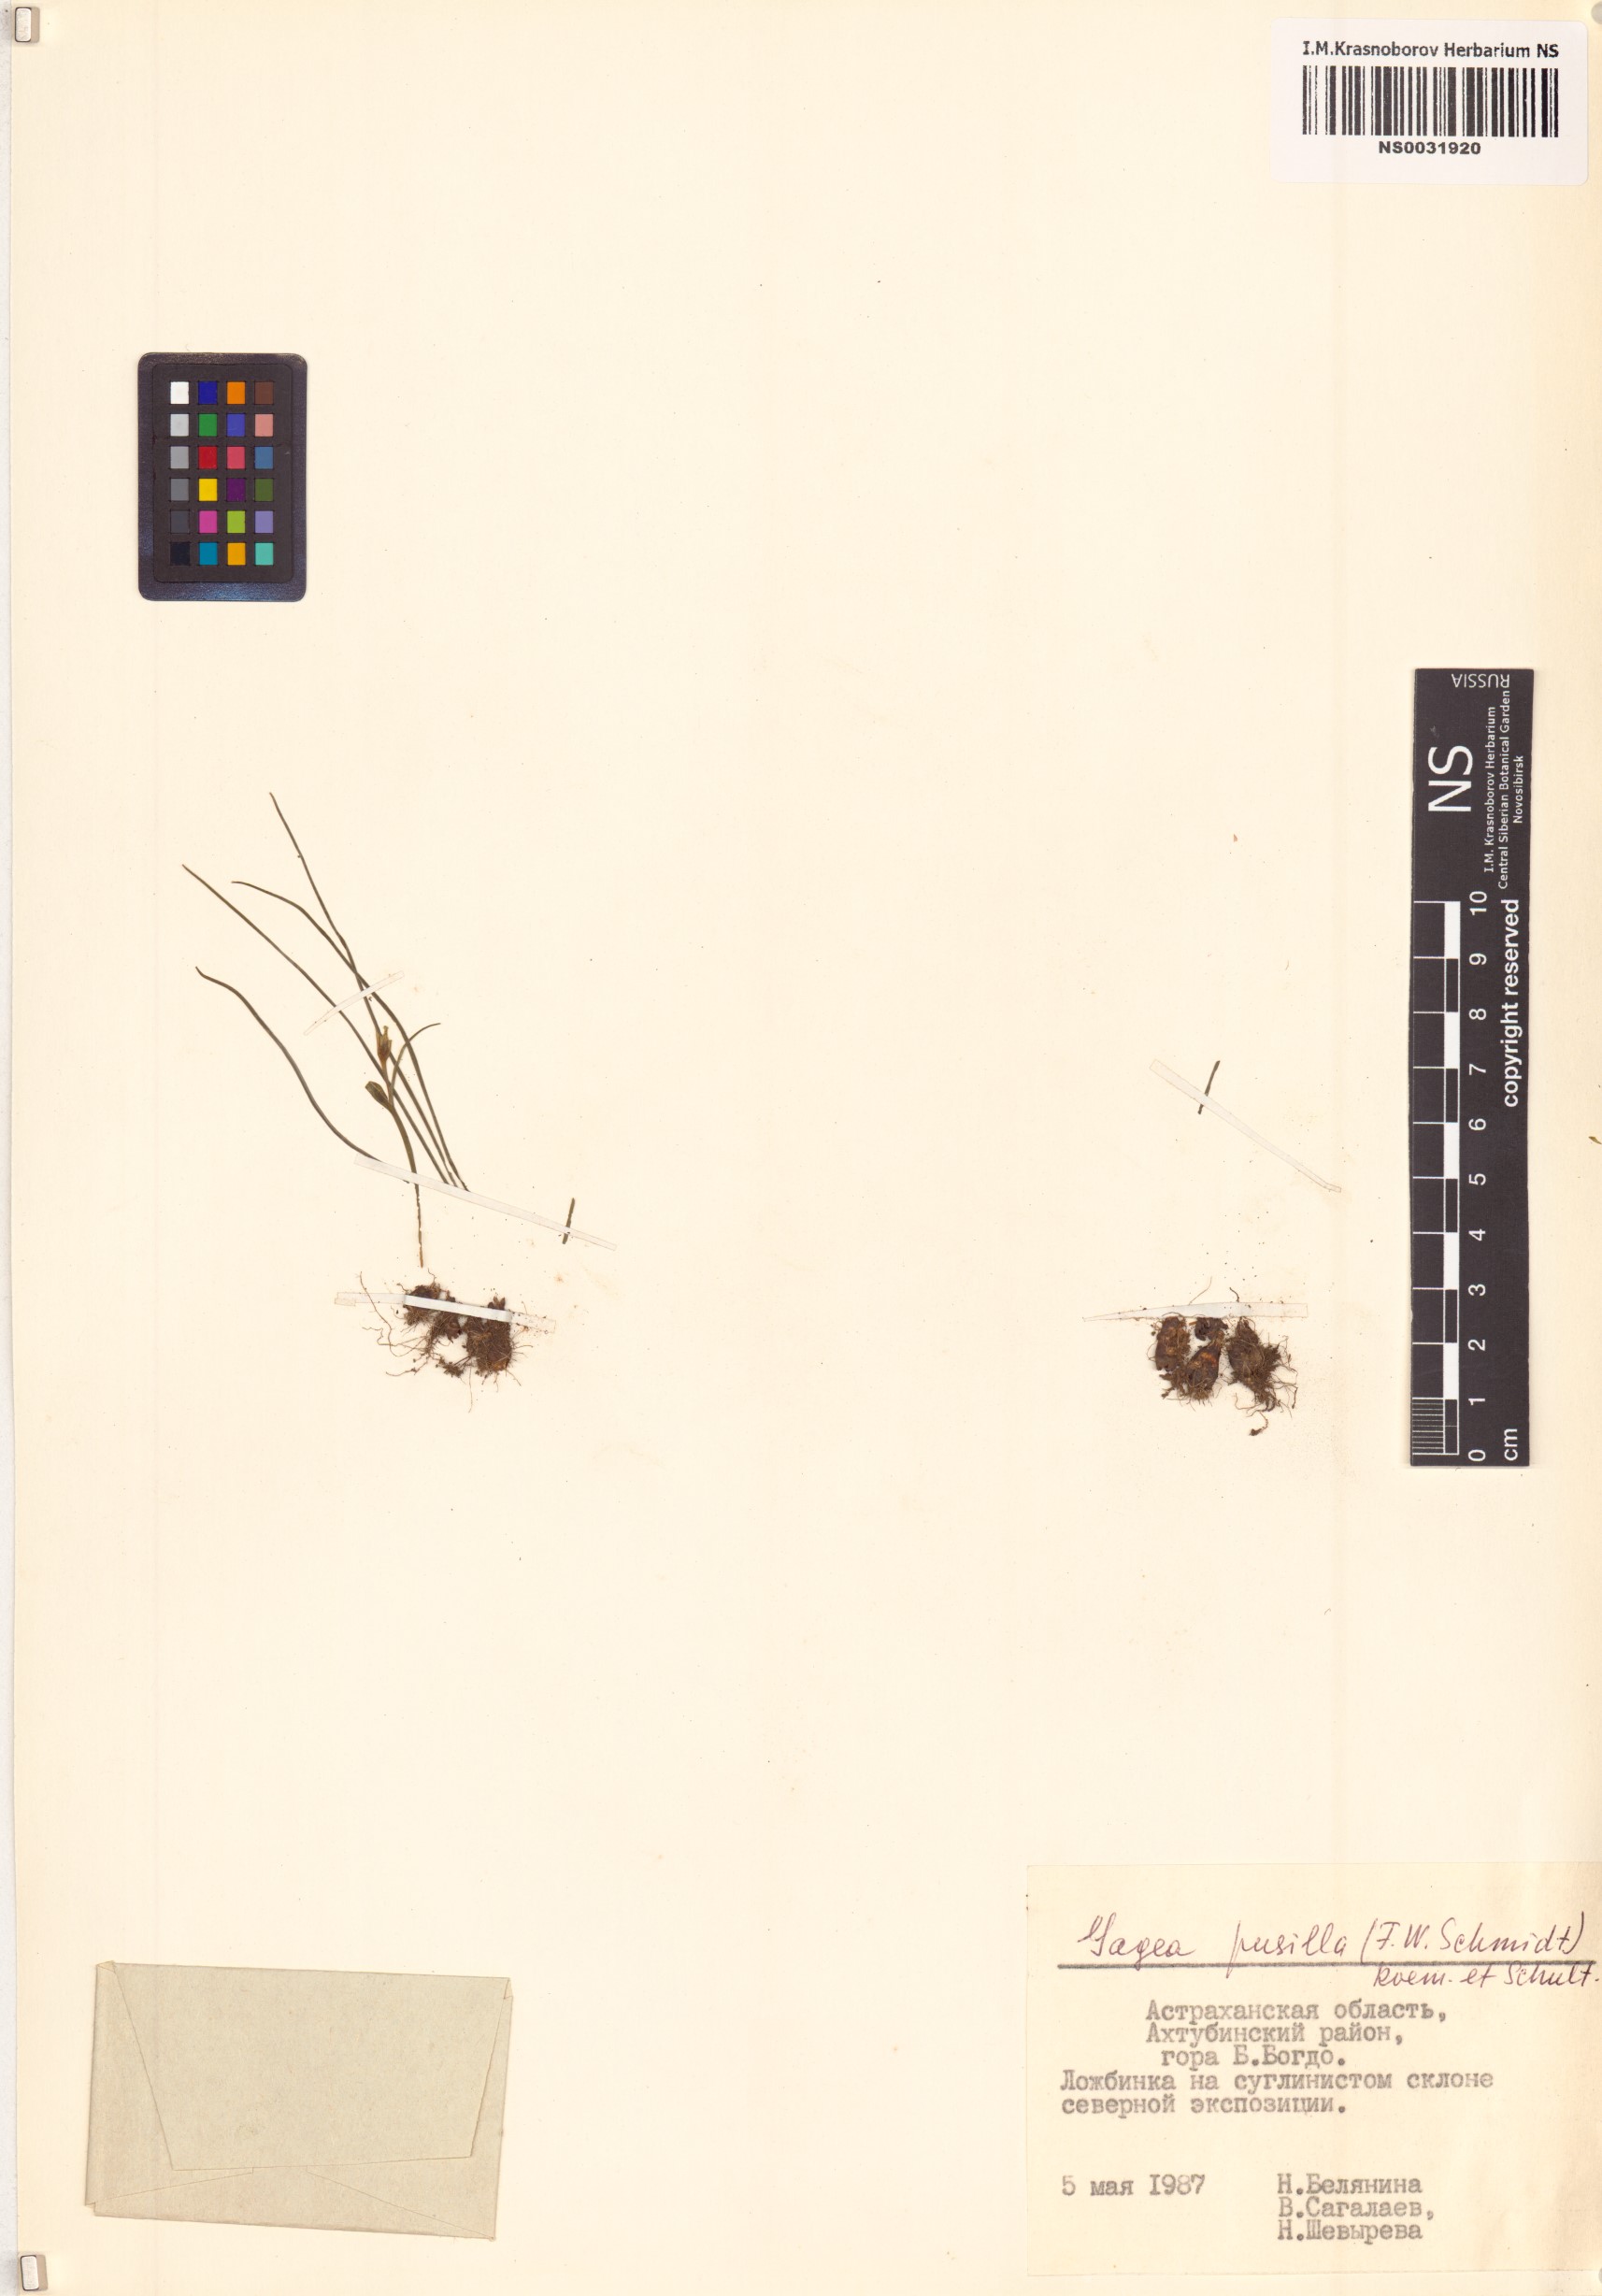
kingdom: Plantae
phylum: Tracheophyta
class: Liliopsida
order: Liliales
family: Liliaceae
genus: Gagea
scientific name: Gagea pusilla
